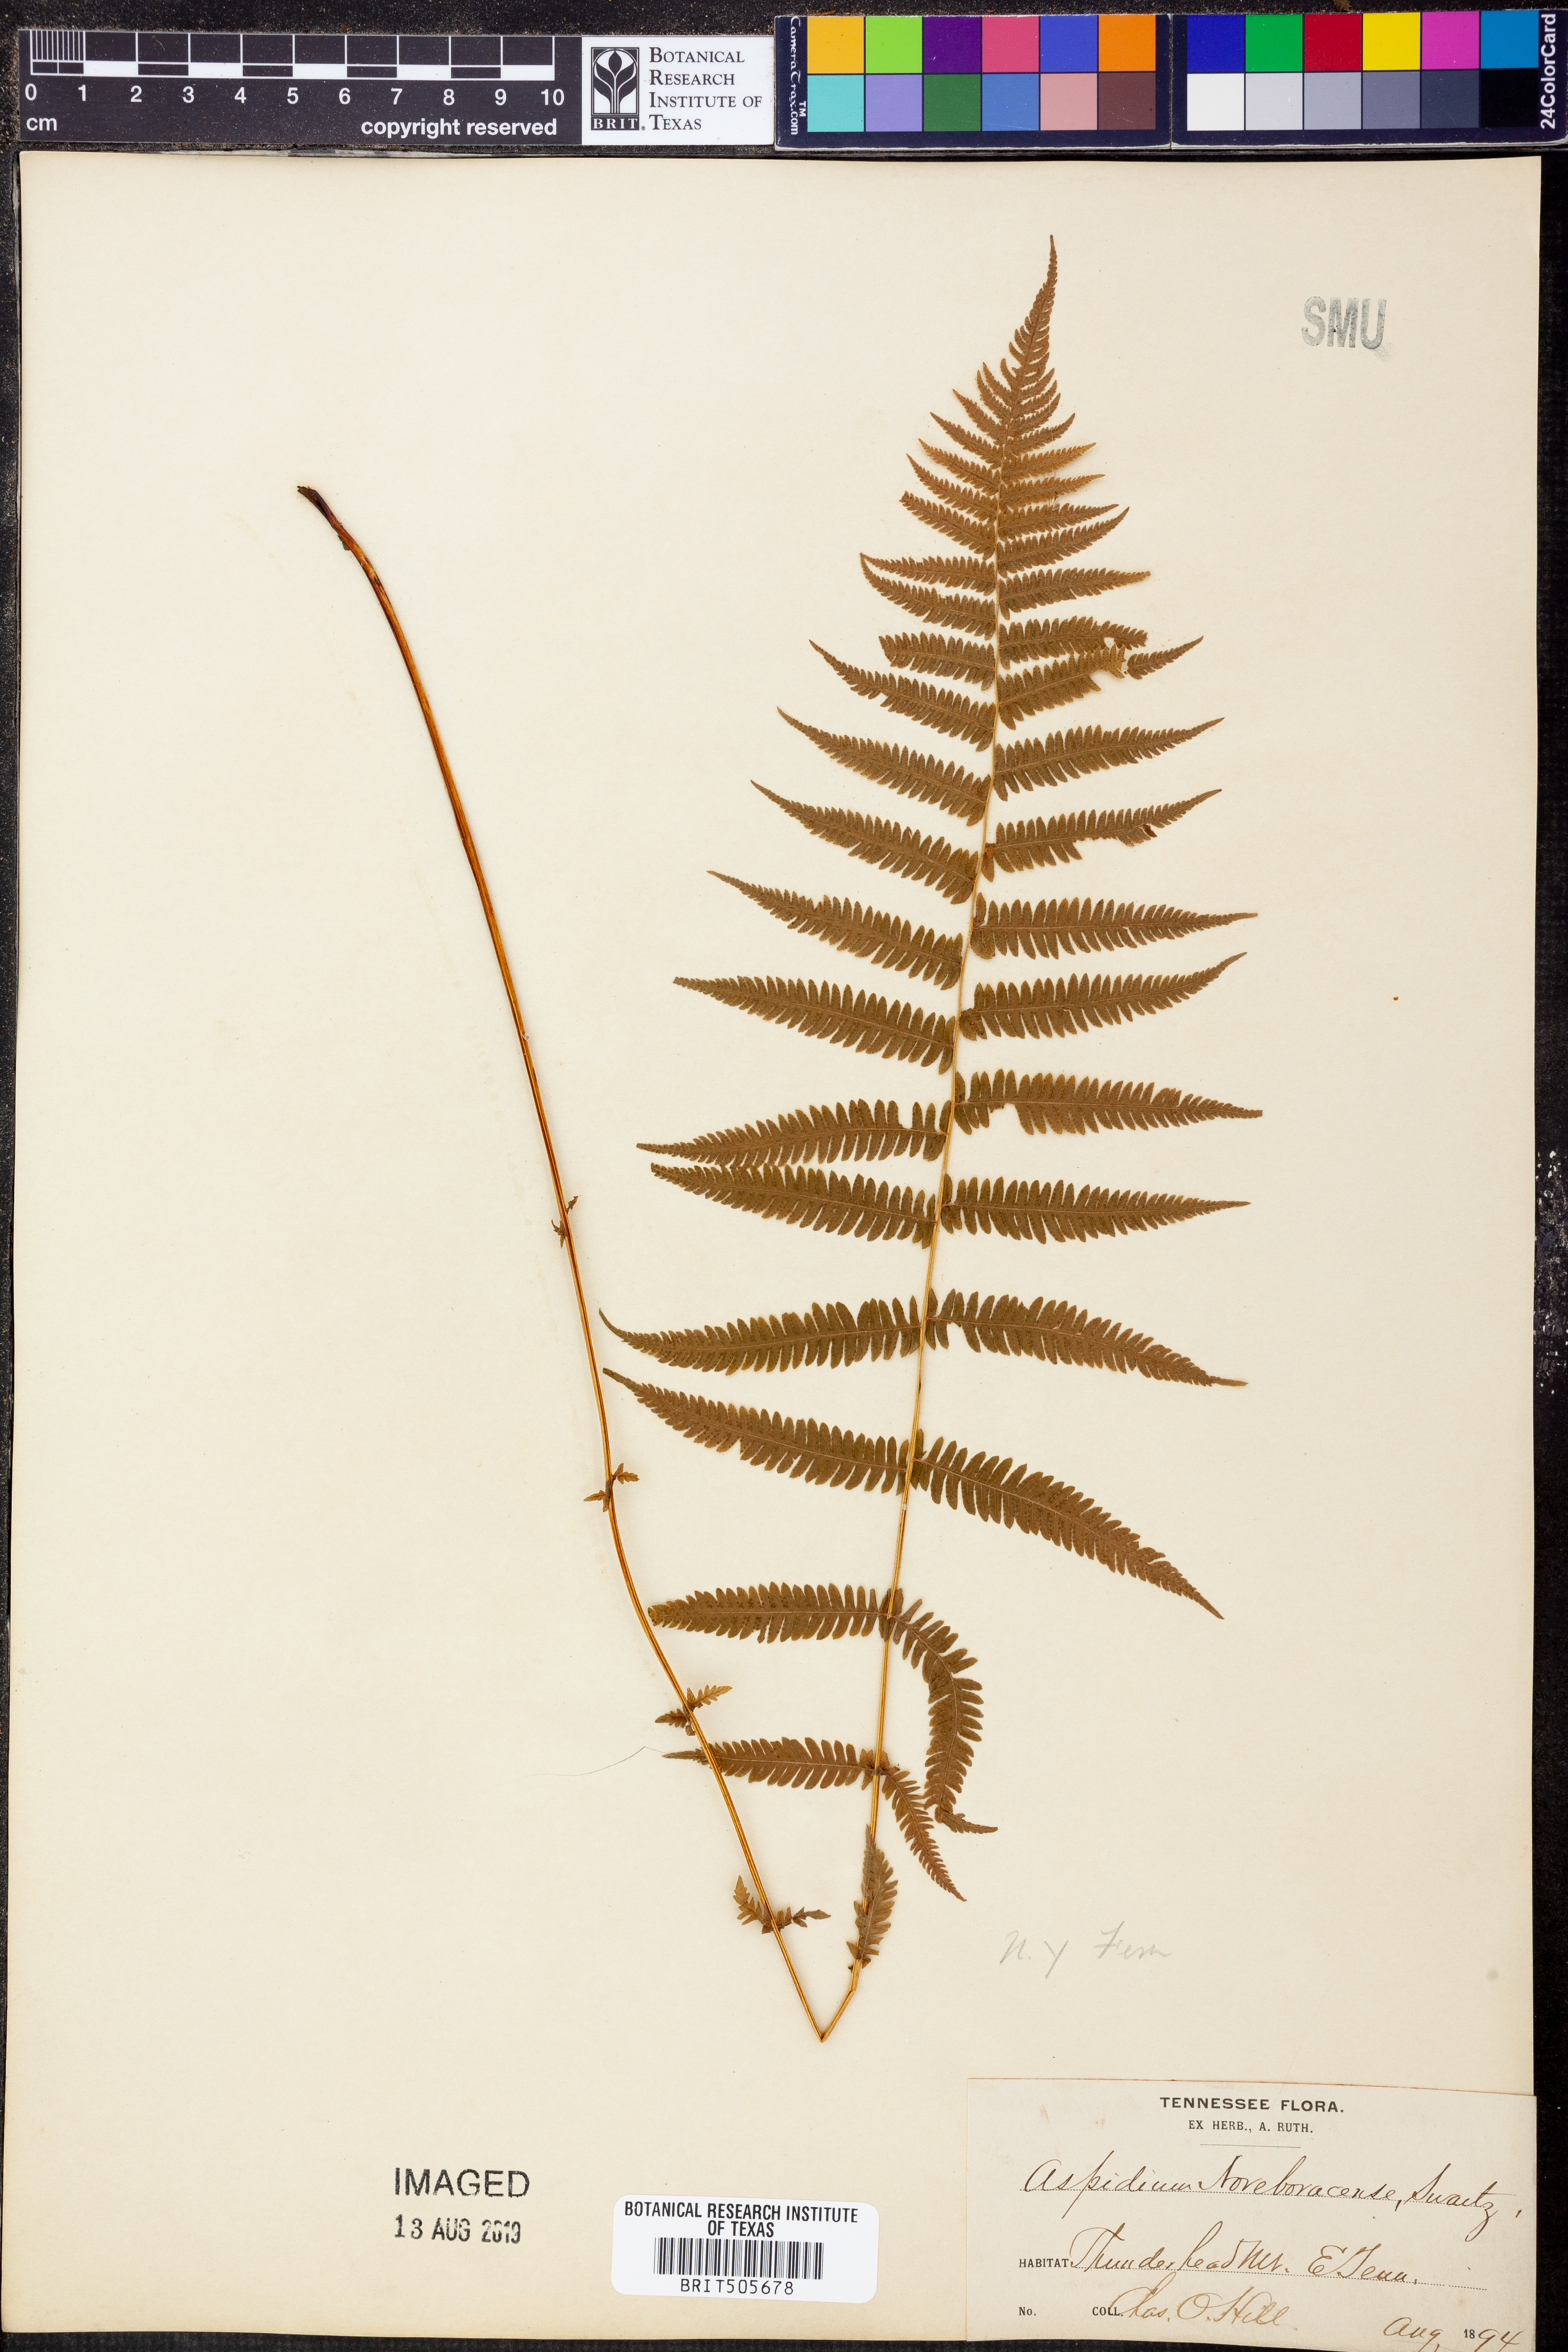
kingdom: Plantae
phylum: Tracheophyta
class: Polypodiopsida
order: Polypodiales
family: Thelypteridaceae
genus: Amauropelta
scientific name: Amauropelta noveboracensis
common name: New york fern
